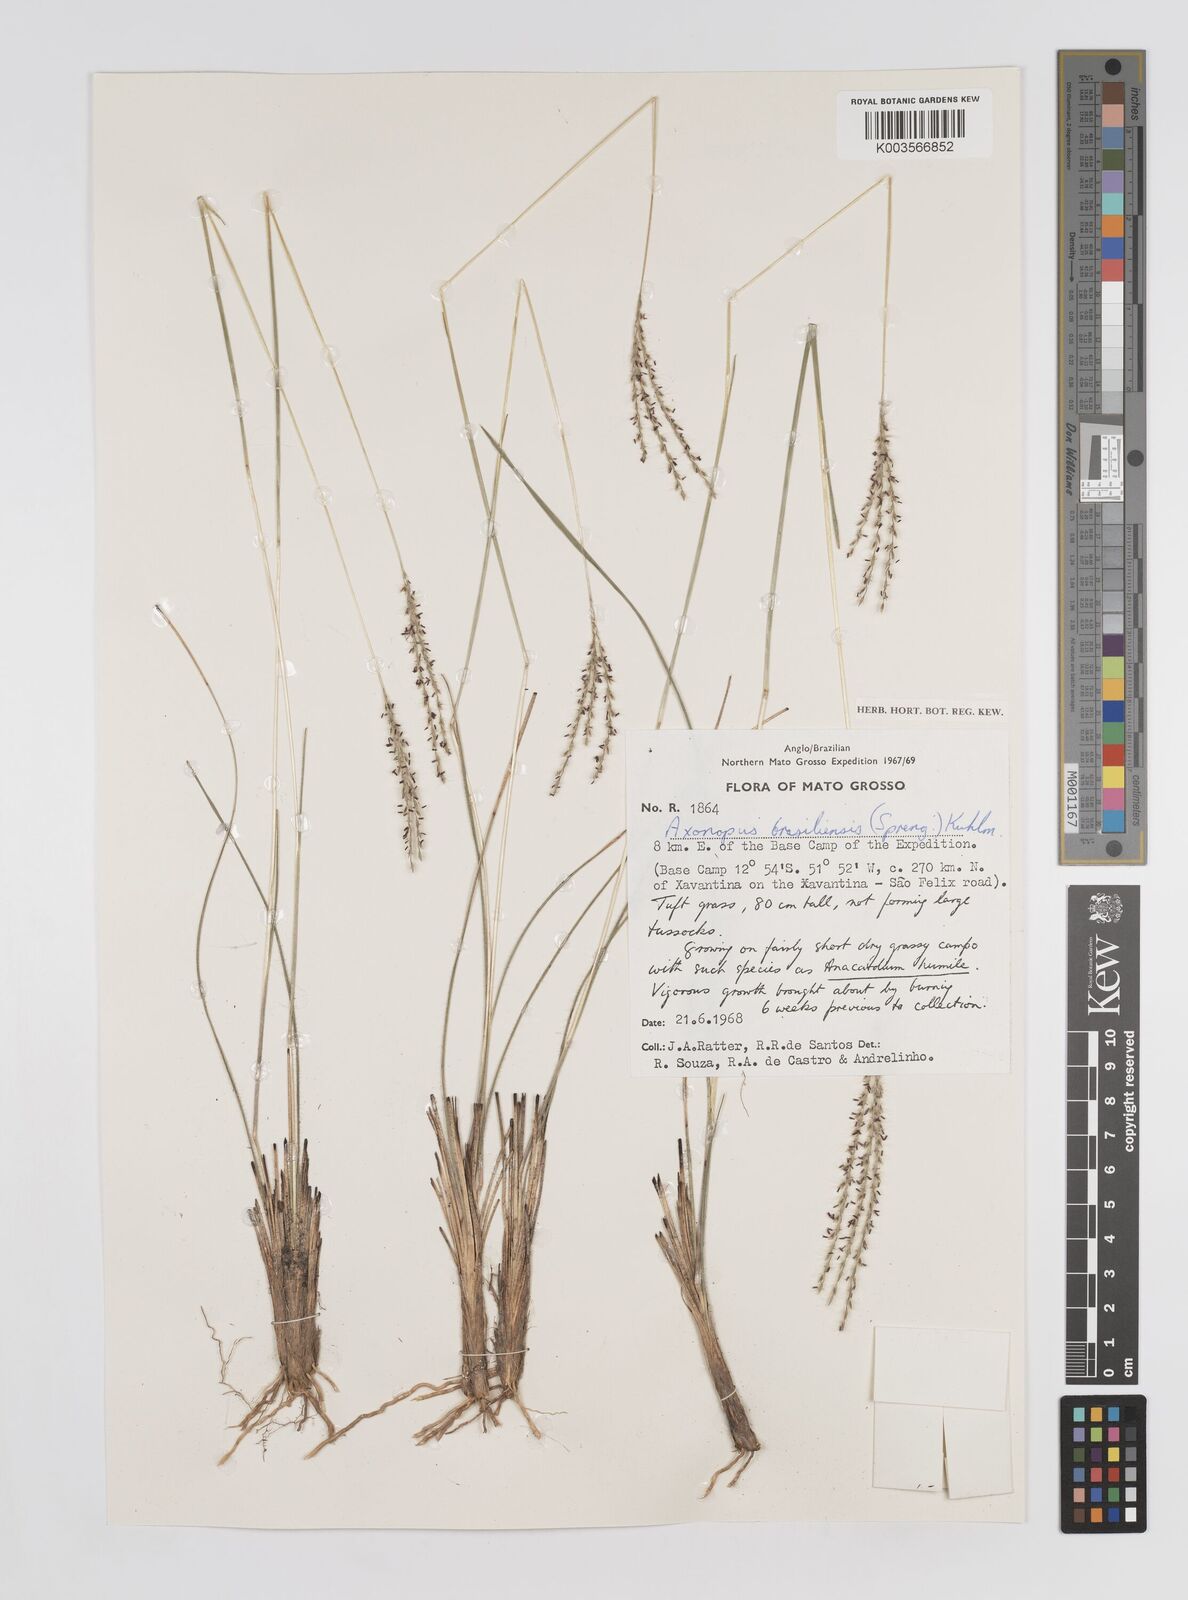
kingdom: Plantae
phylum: Tracheophyta
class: Liliopsida
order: Poales
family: Poaceae
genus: Axonopus
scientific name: Axonopus brasiliensis
